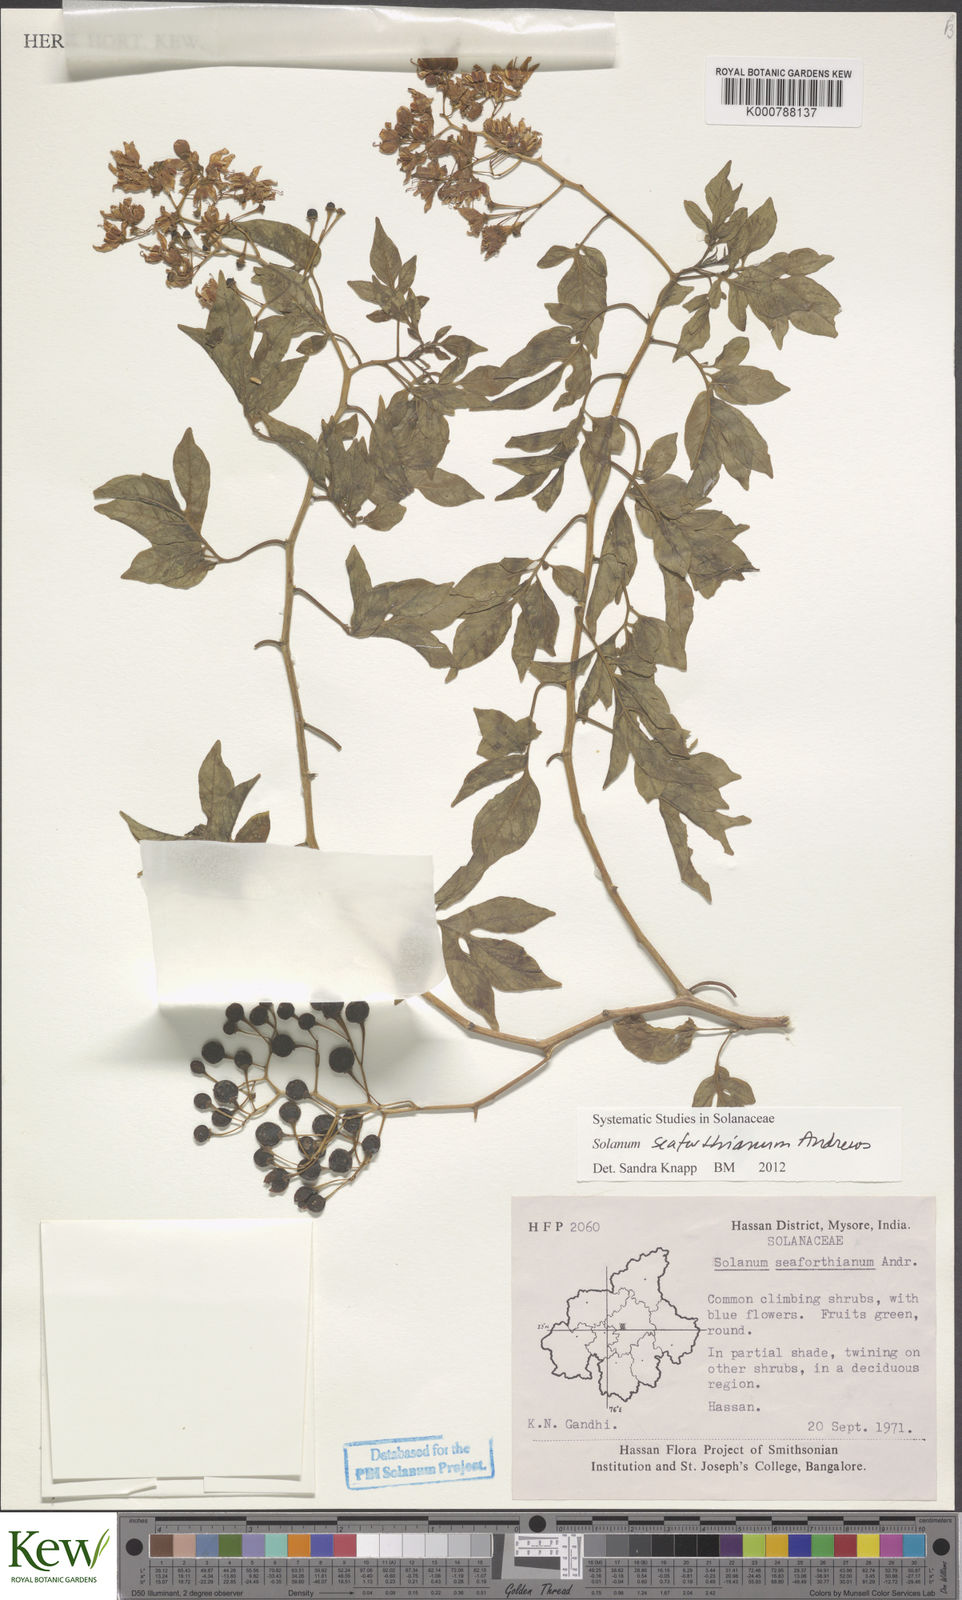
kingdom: Plantae
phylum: Tracheophyta
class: Magnoliopsida
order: Solanales
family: Solanaceae
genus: Solanum
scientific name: Solanum seaforthianum
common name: Brazilian nightshade
